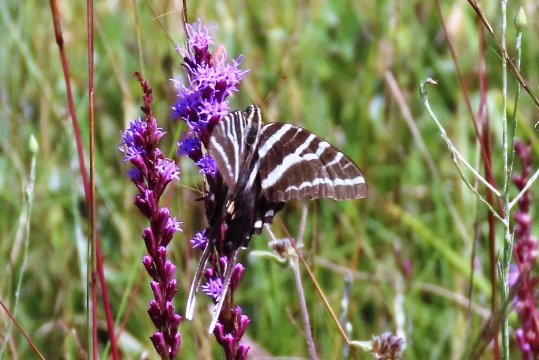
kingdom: Animalia
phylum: Arthropoda
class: Insecta
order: Lepidoptera
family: Papilionidae
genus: Protographium
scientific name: Protographium marcellus
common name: Zebra Swallowtail
